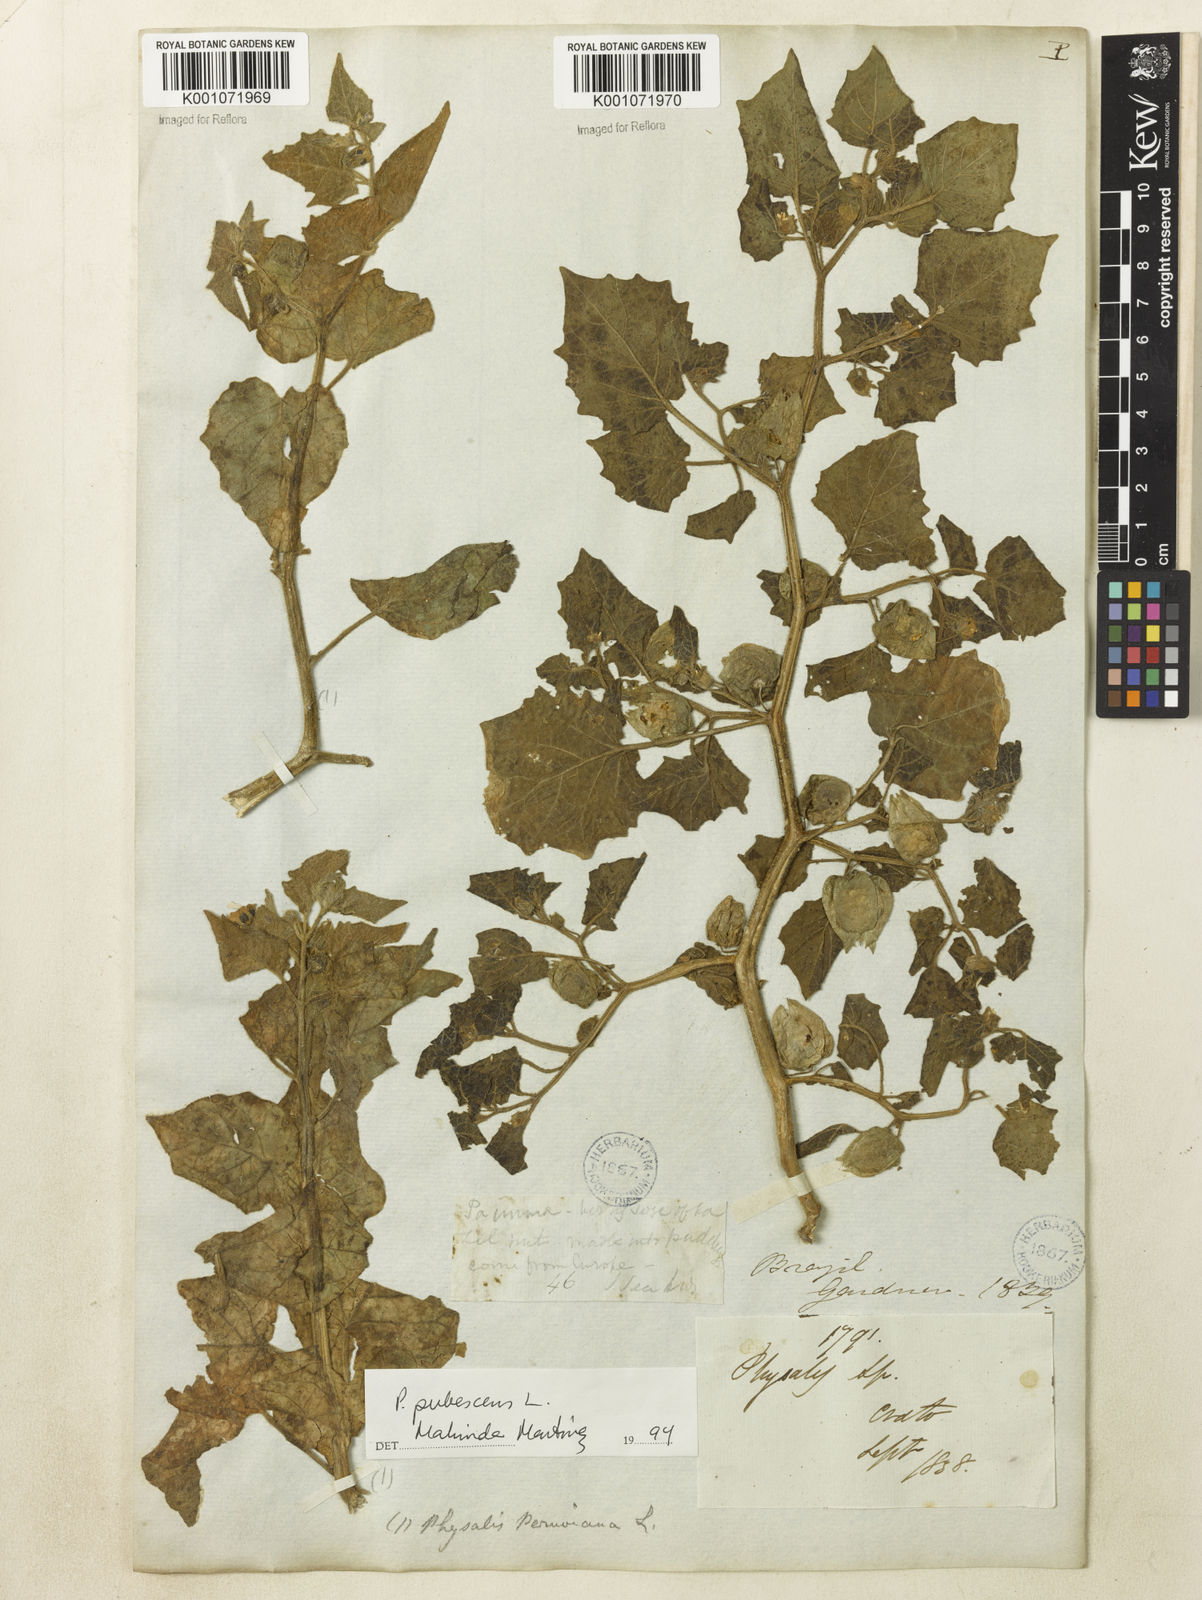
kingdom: Plantae
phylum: Tracheophyta
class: Magnoliopsida
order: Solanales
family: Solanaceae
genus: Physalis
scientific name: Physalis pubescens
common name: Downy ground-cherry
